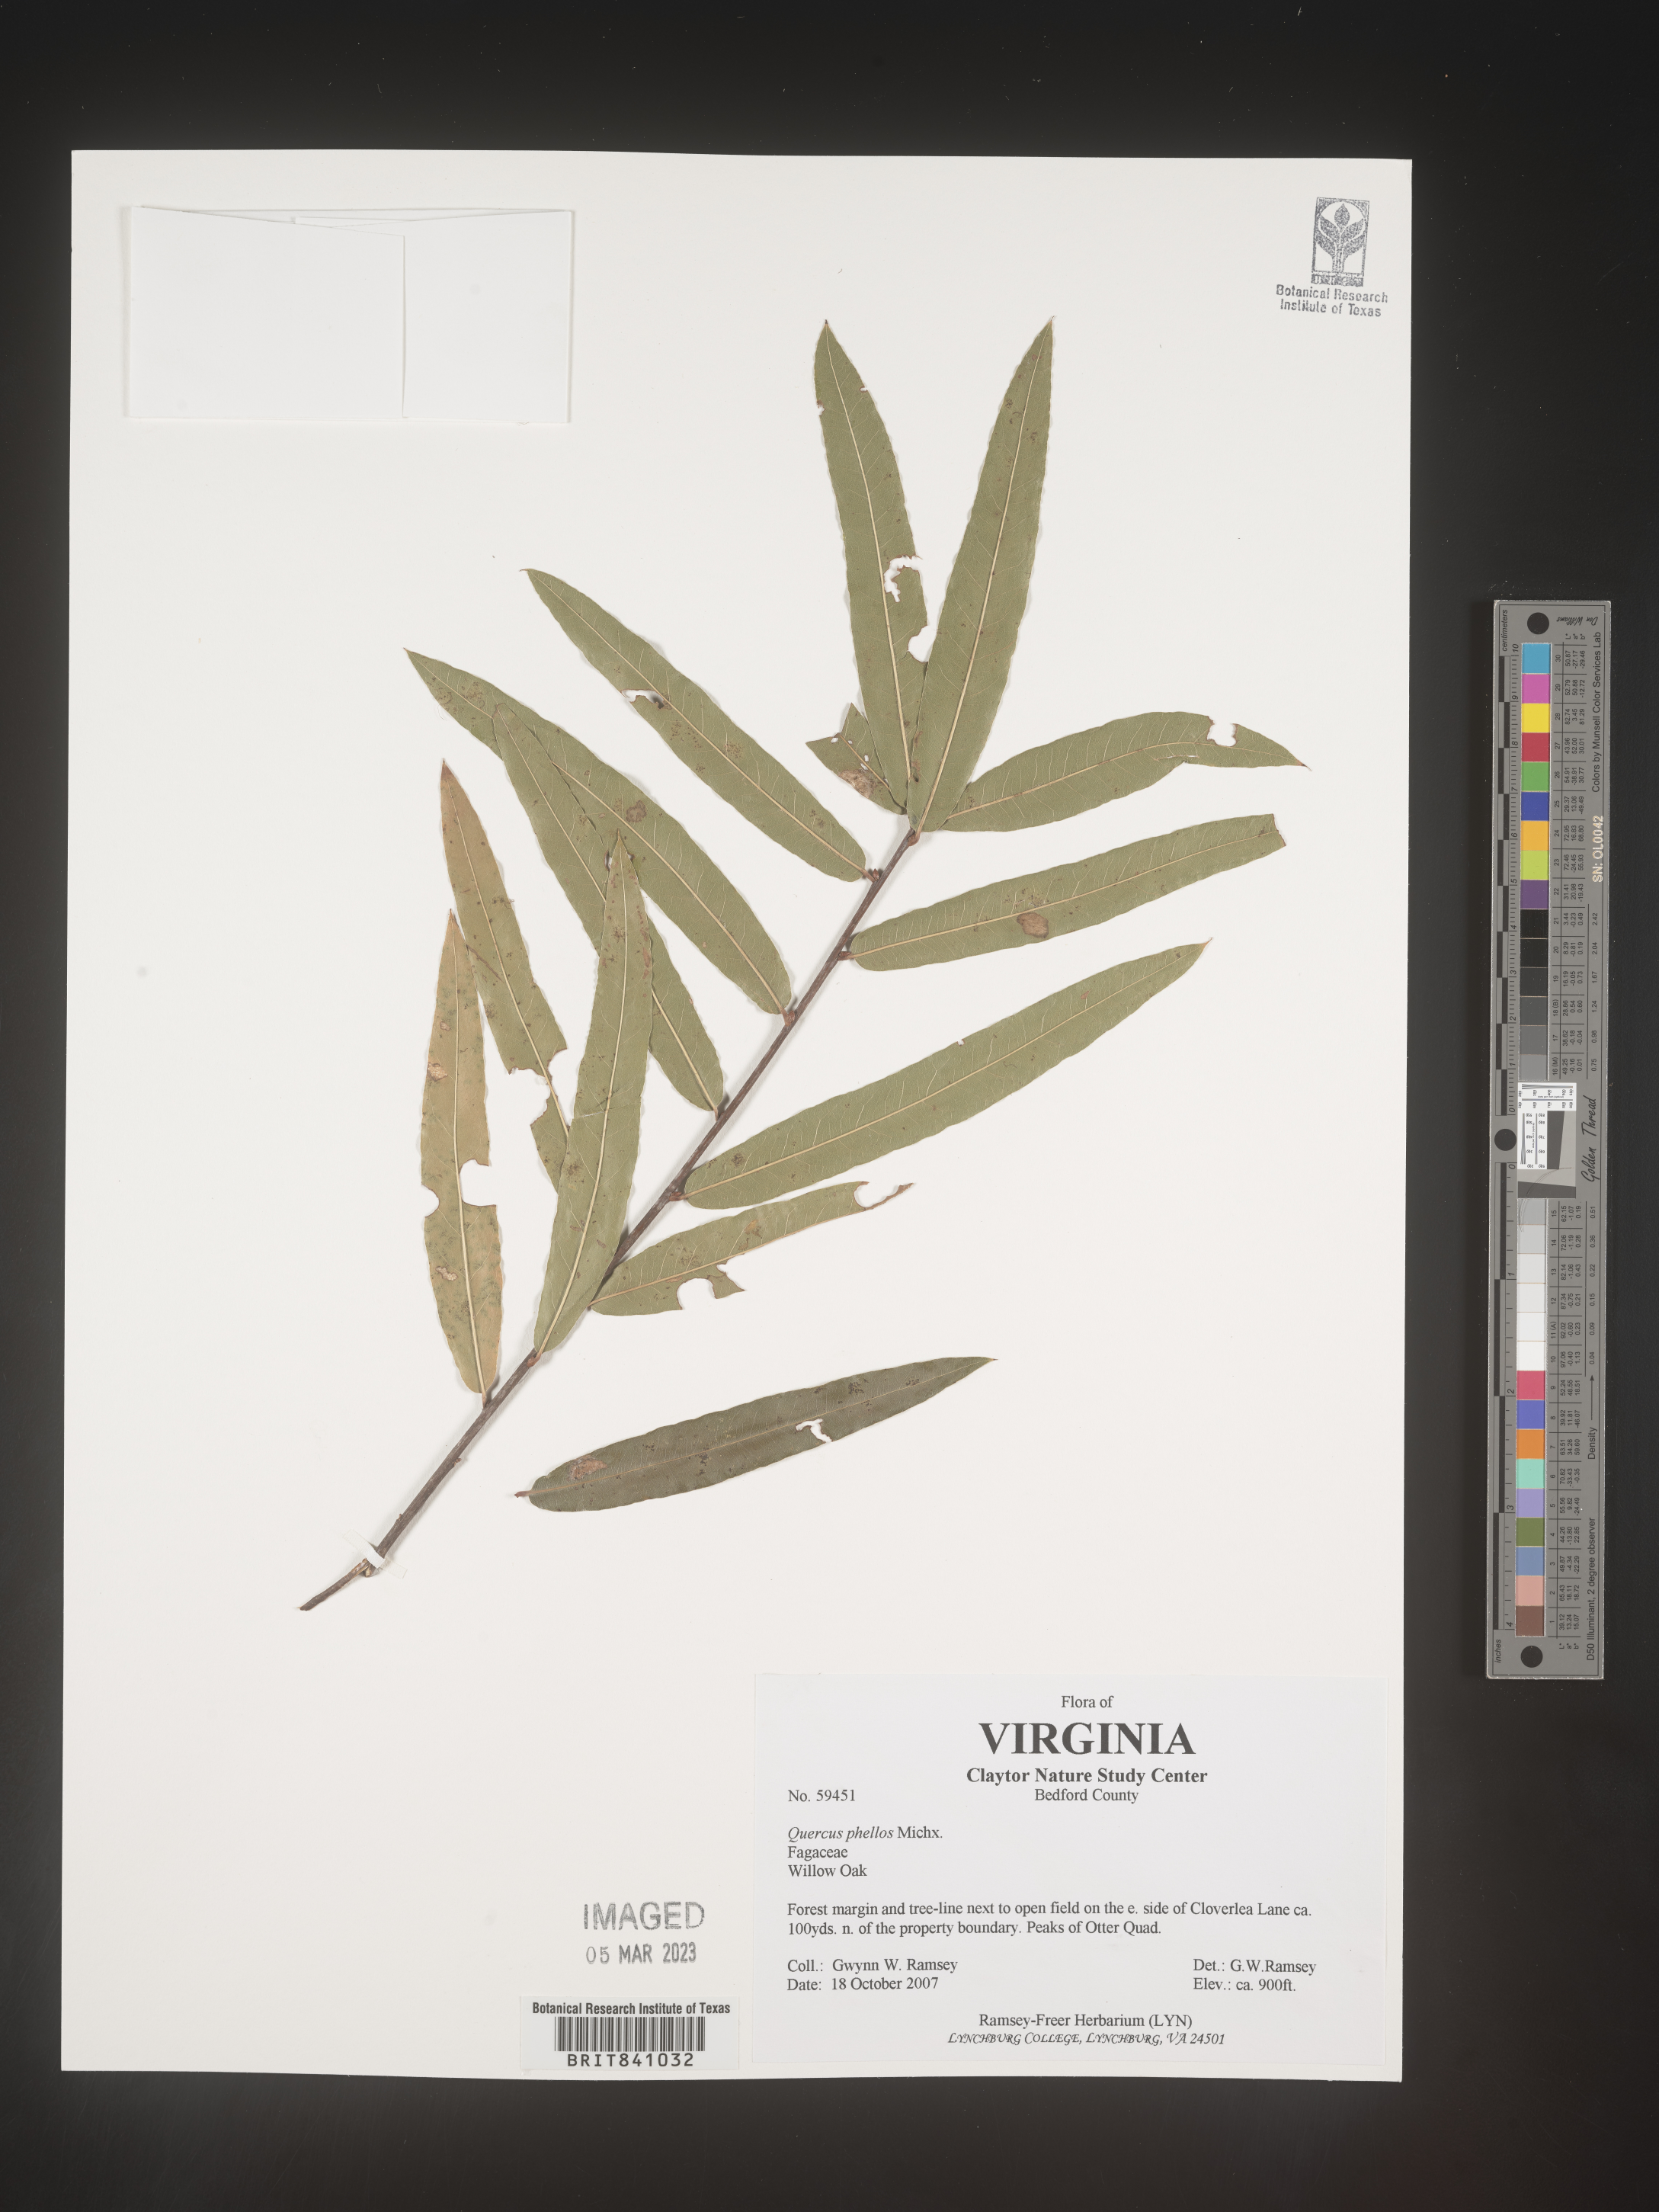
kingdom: Plantae
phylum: Tracheophyta
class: Magnoliopsida
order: Fagales
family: Fagaceae
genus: Quercus
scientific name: Quercus phellos
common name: Willow oak
